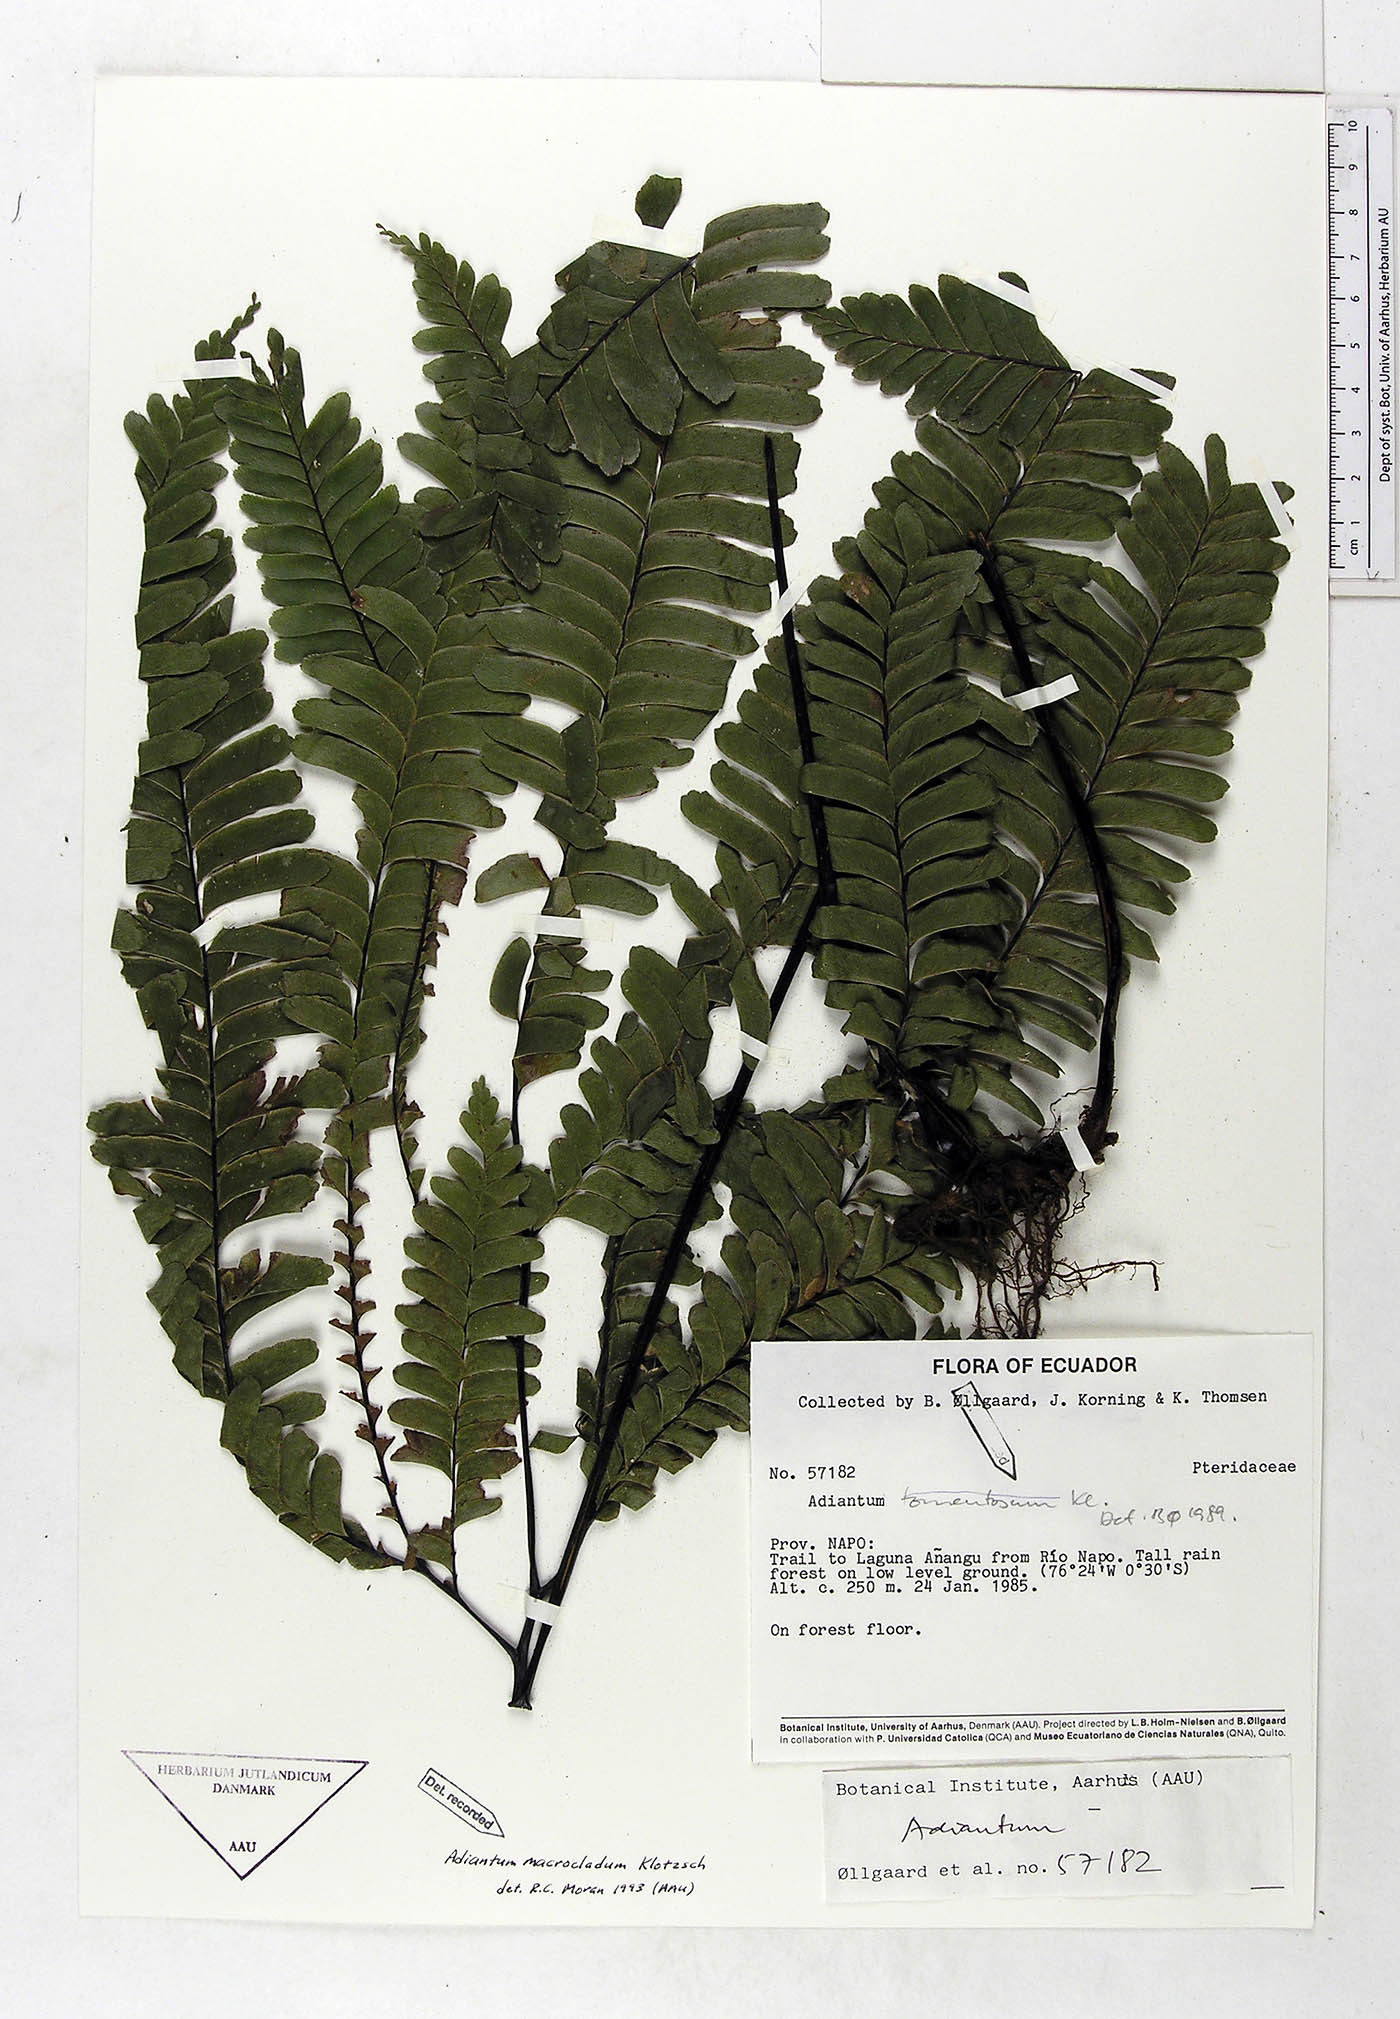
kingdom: Plantae
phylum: Tracheophyta
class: Polypodiopsida
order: Polypodiales
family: Pteridaceae
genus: Adiantum
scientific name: Adiantum macrocladum
